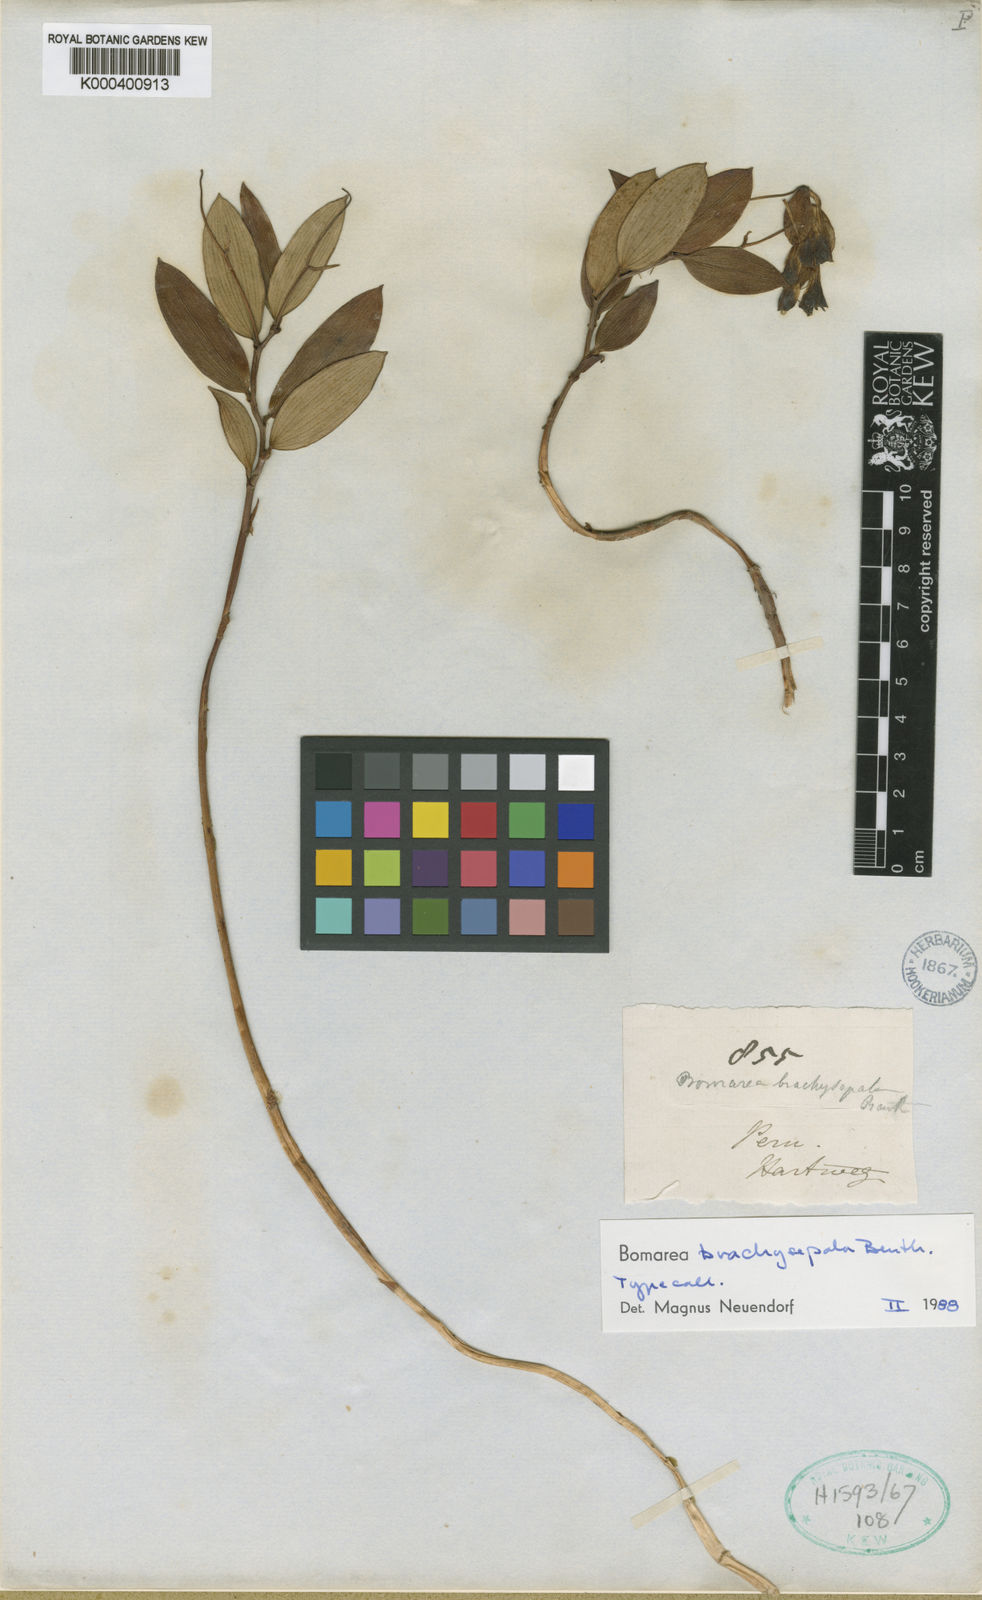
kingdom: Plantae
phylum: Tracheophyta
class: Liliopsida
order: Liliales
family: Alstroemeriaceae
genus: Bomarea
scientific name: Bomarea brachysepala
